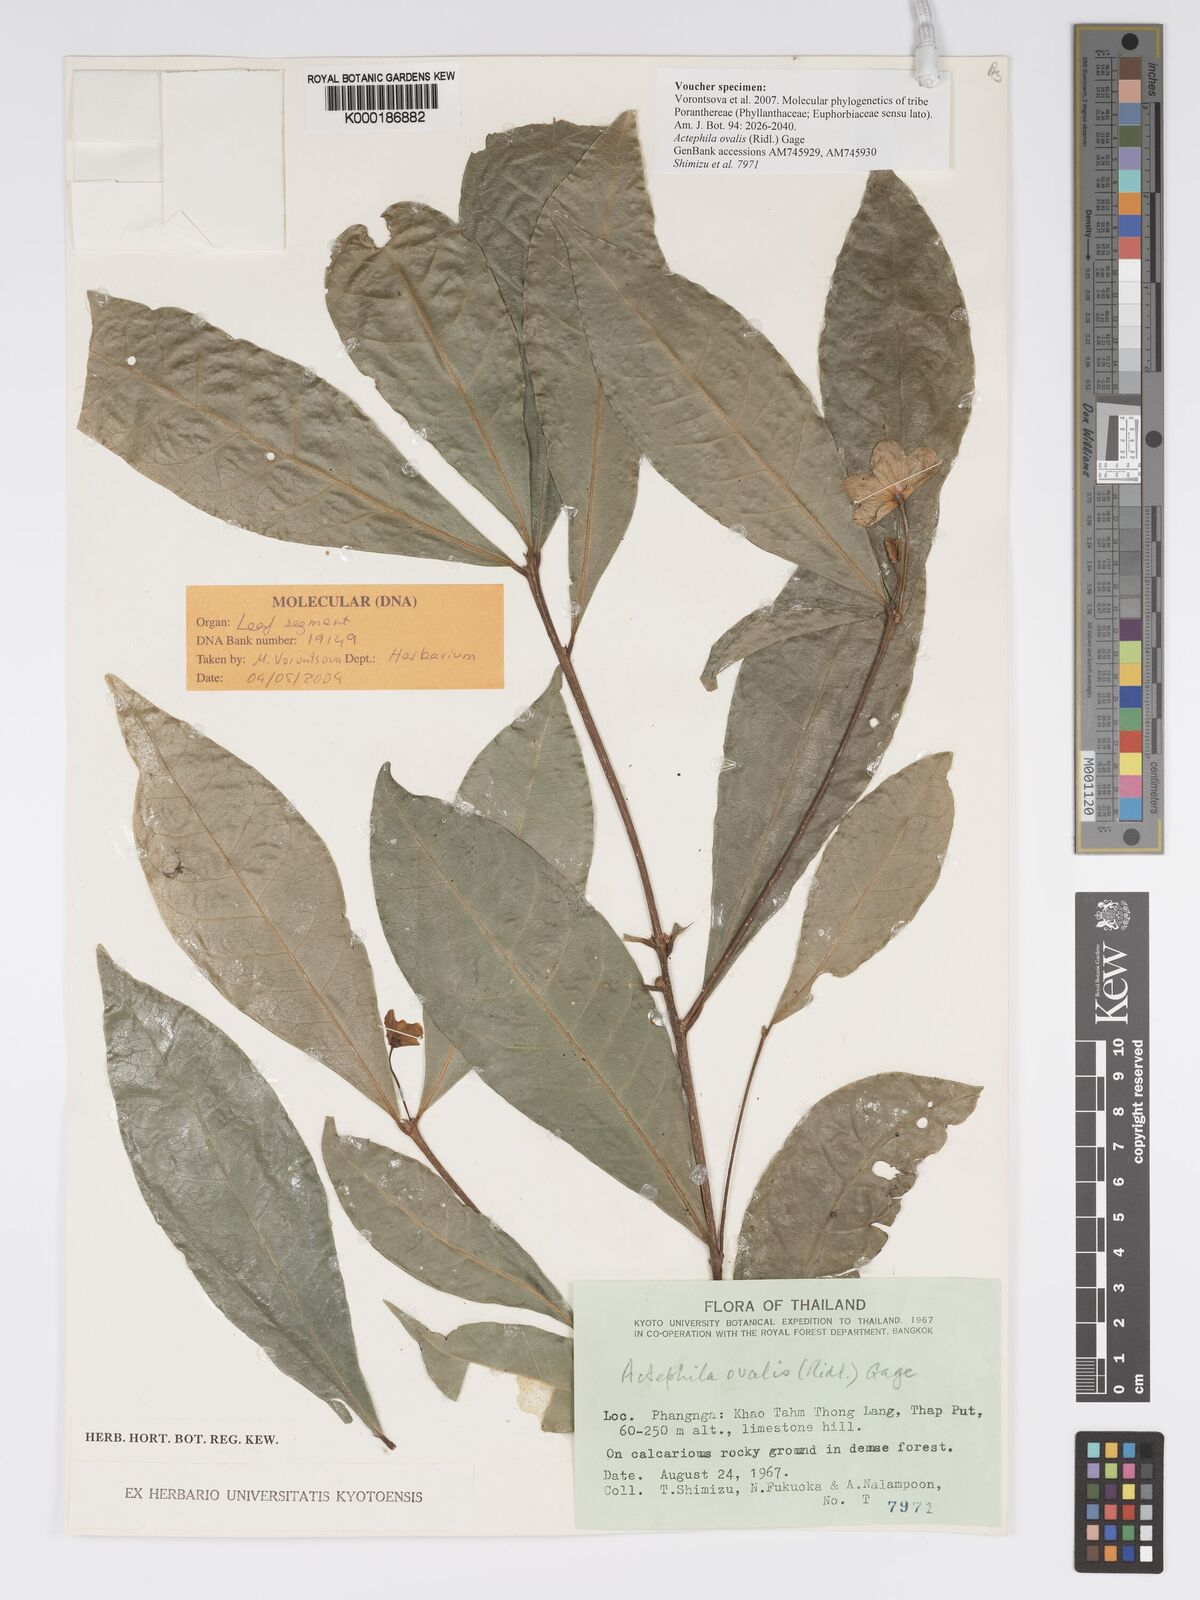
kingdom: Plantae
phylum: Tracheophyta
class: Magnoliopsida
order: Malpighiales
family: Phyllanthaceae
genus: Actephila
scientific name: Actephila ovalis
